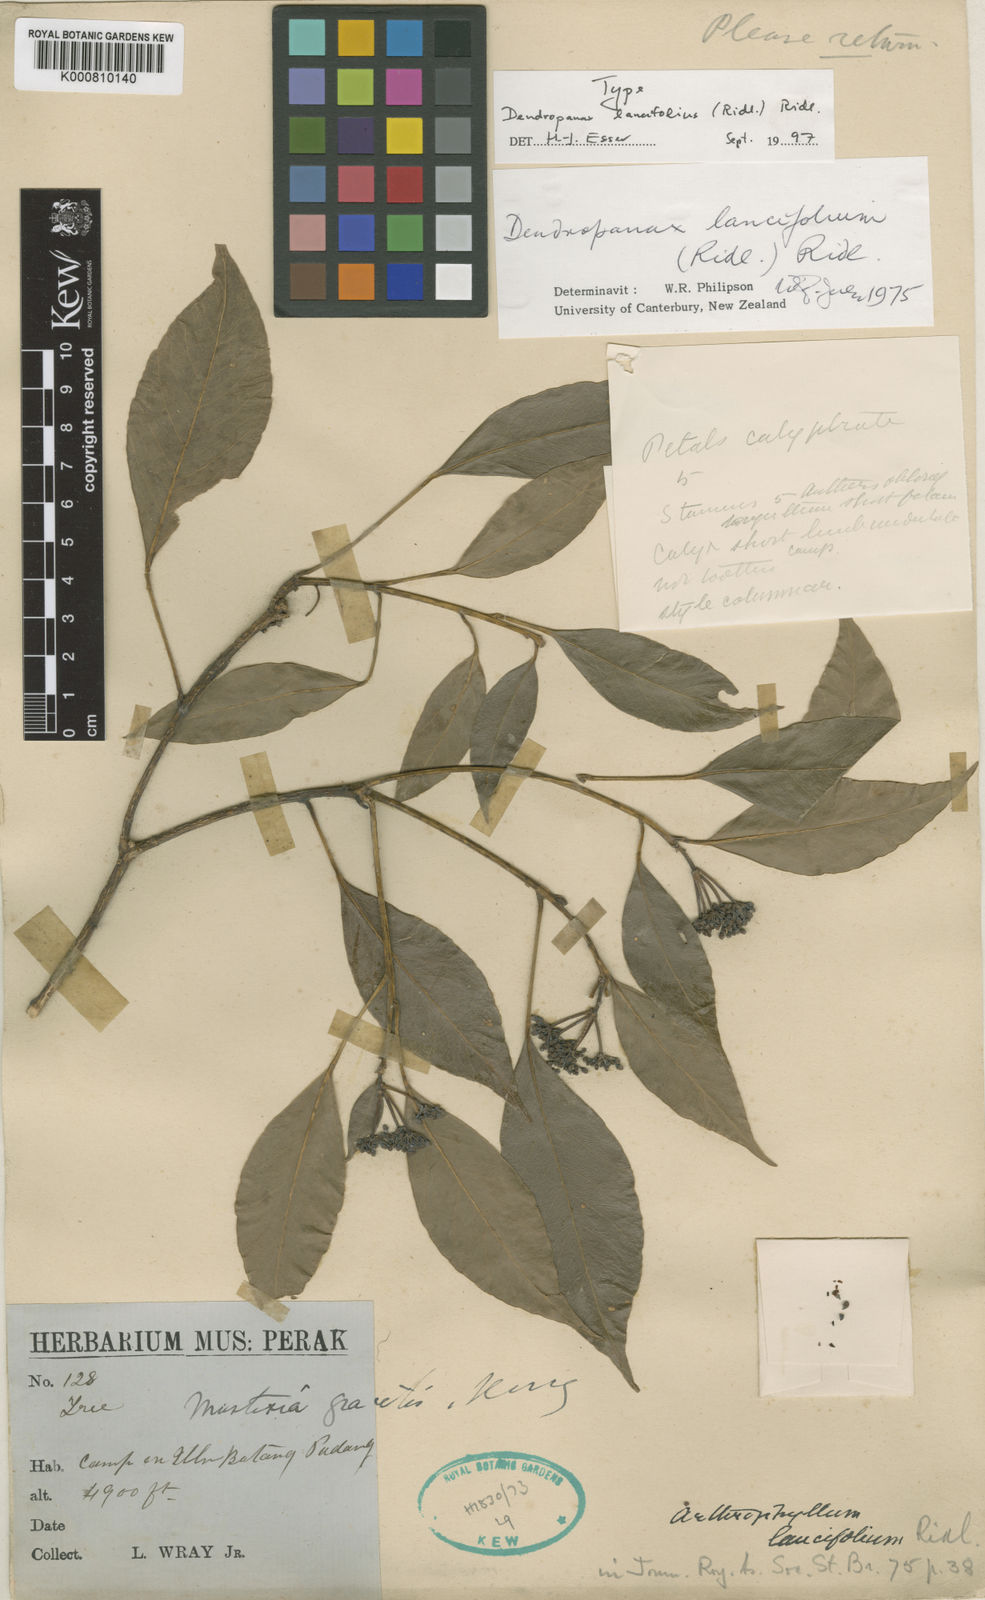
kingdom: Plantae
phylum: Tracheophyta
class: Magnoliopsida
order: Apiales
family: Araliaceae
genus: Dendropanax
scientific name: Dendropanax lancifolius
